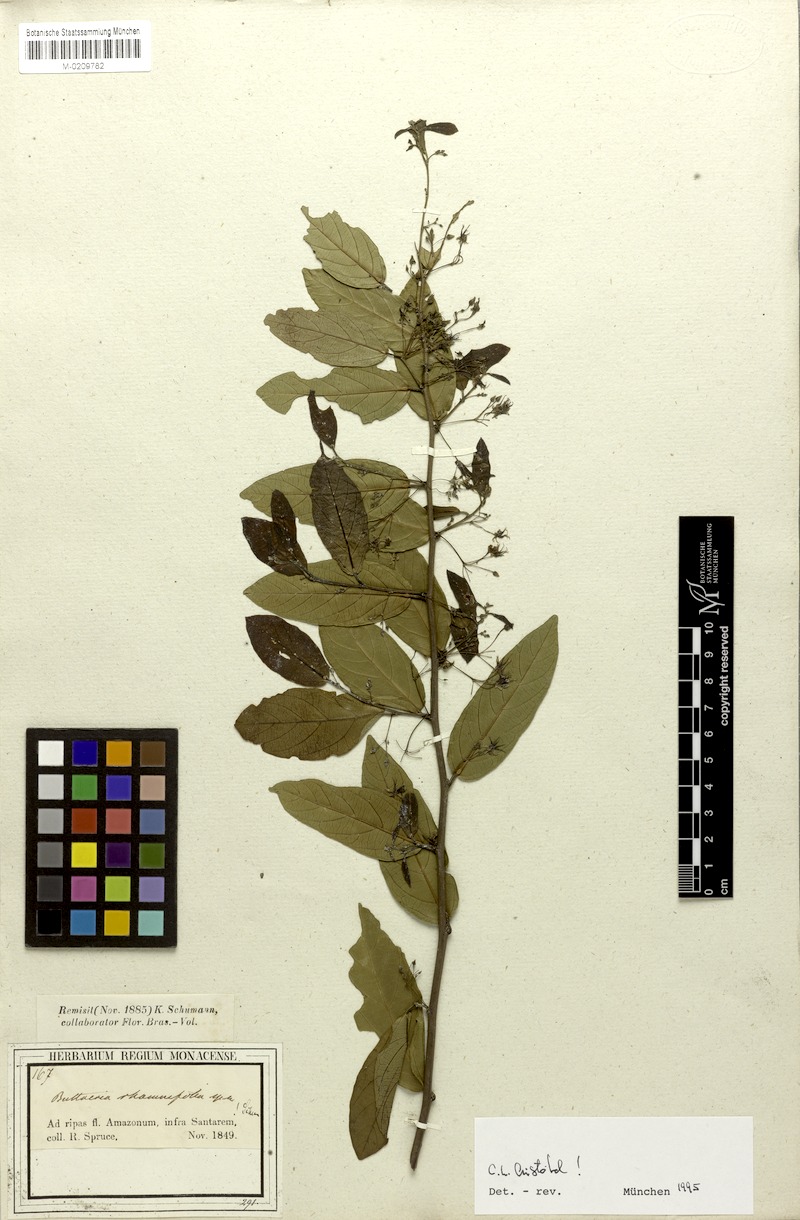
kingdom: Plantae
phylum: Tracheophyta
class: Magnoliopsida
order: Malvales
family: Malvaceae
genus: Byttneria
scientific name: Byttneria rhamnifolia
